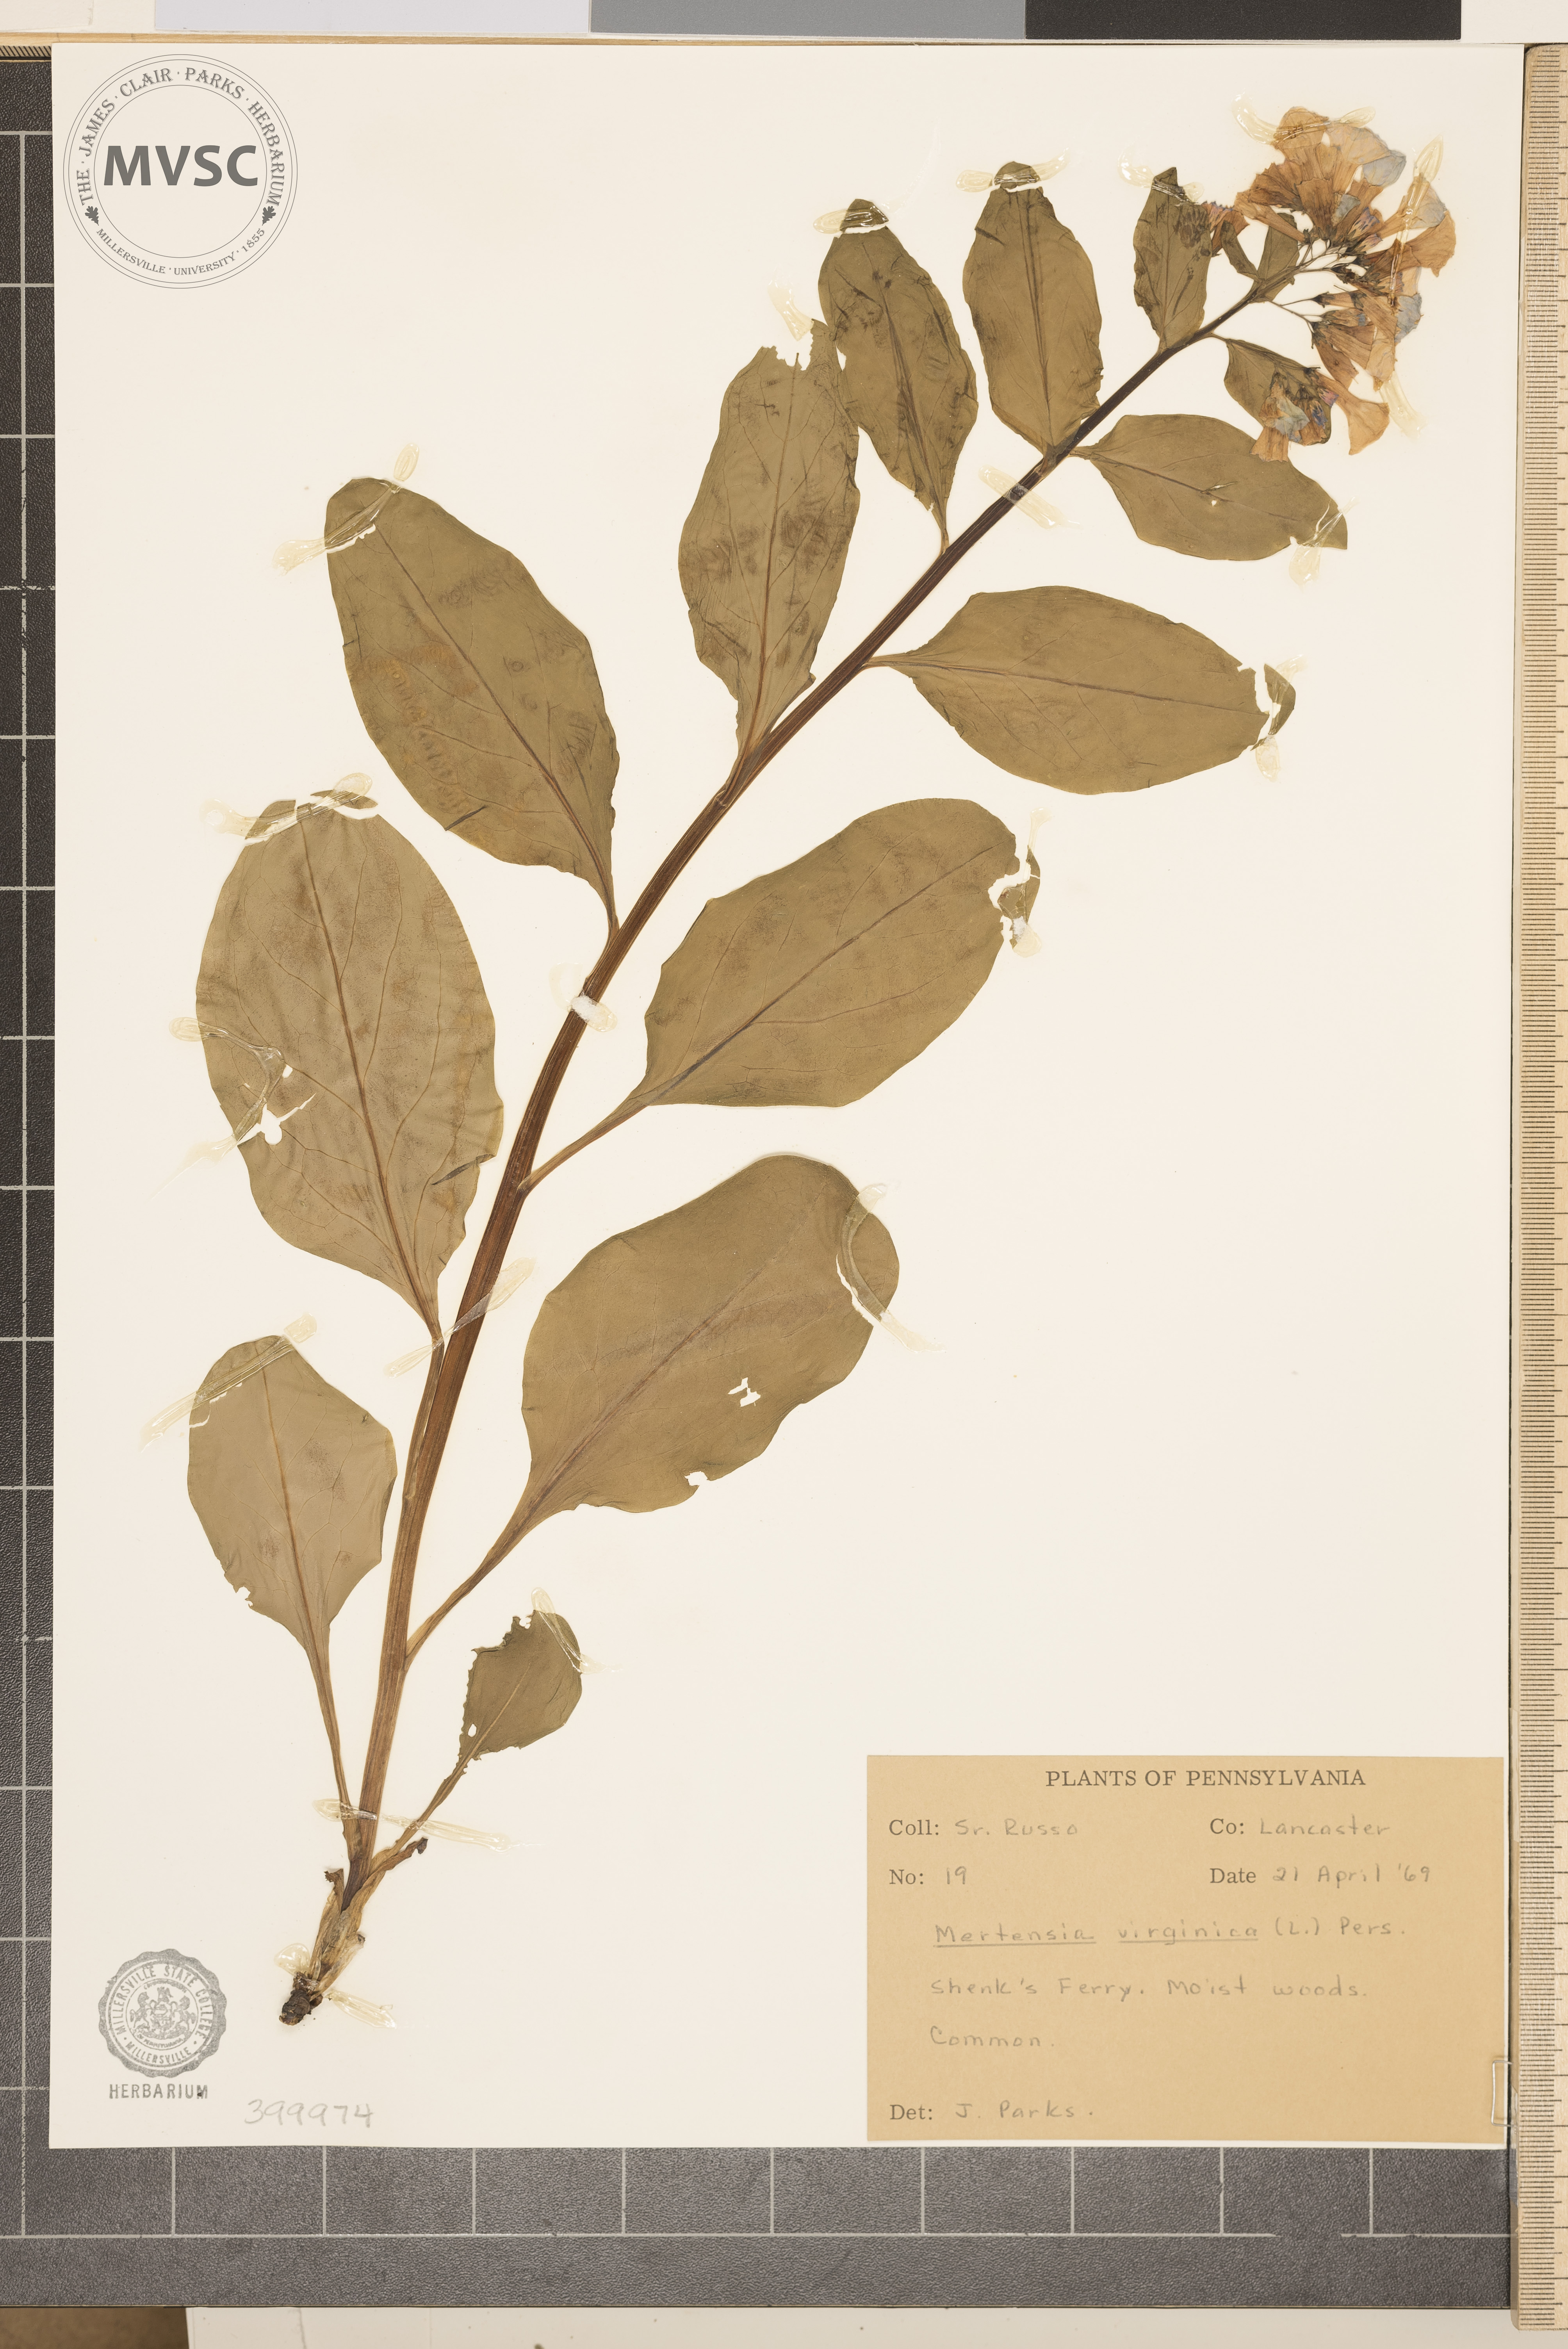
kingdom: Plantae
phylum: Tracheophyta
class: Magnoliopsida
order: Boraginales
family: Boraginaceae
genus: Mertensia
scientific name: Mertensia virginica
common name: Virginia bluebells
